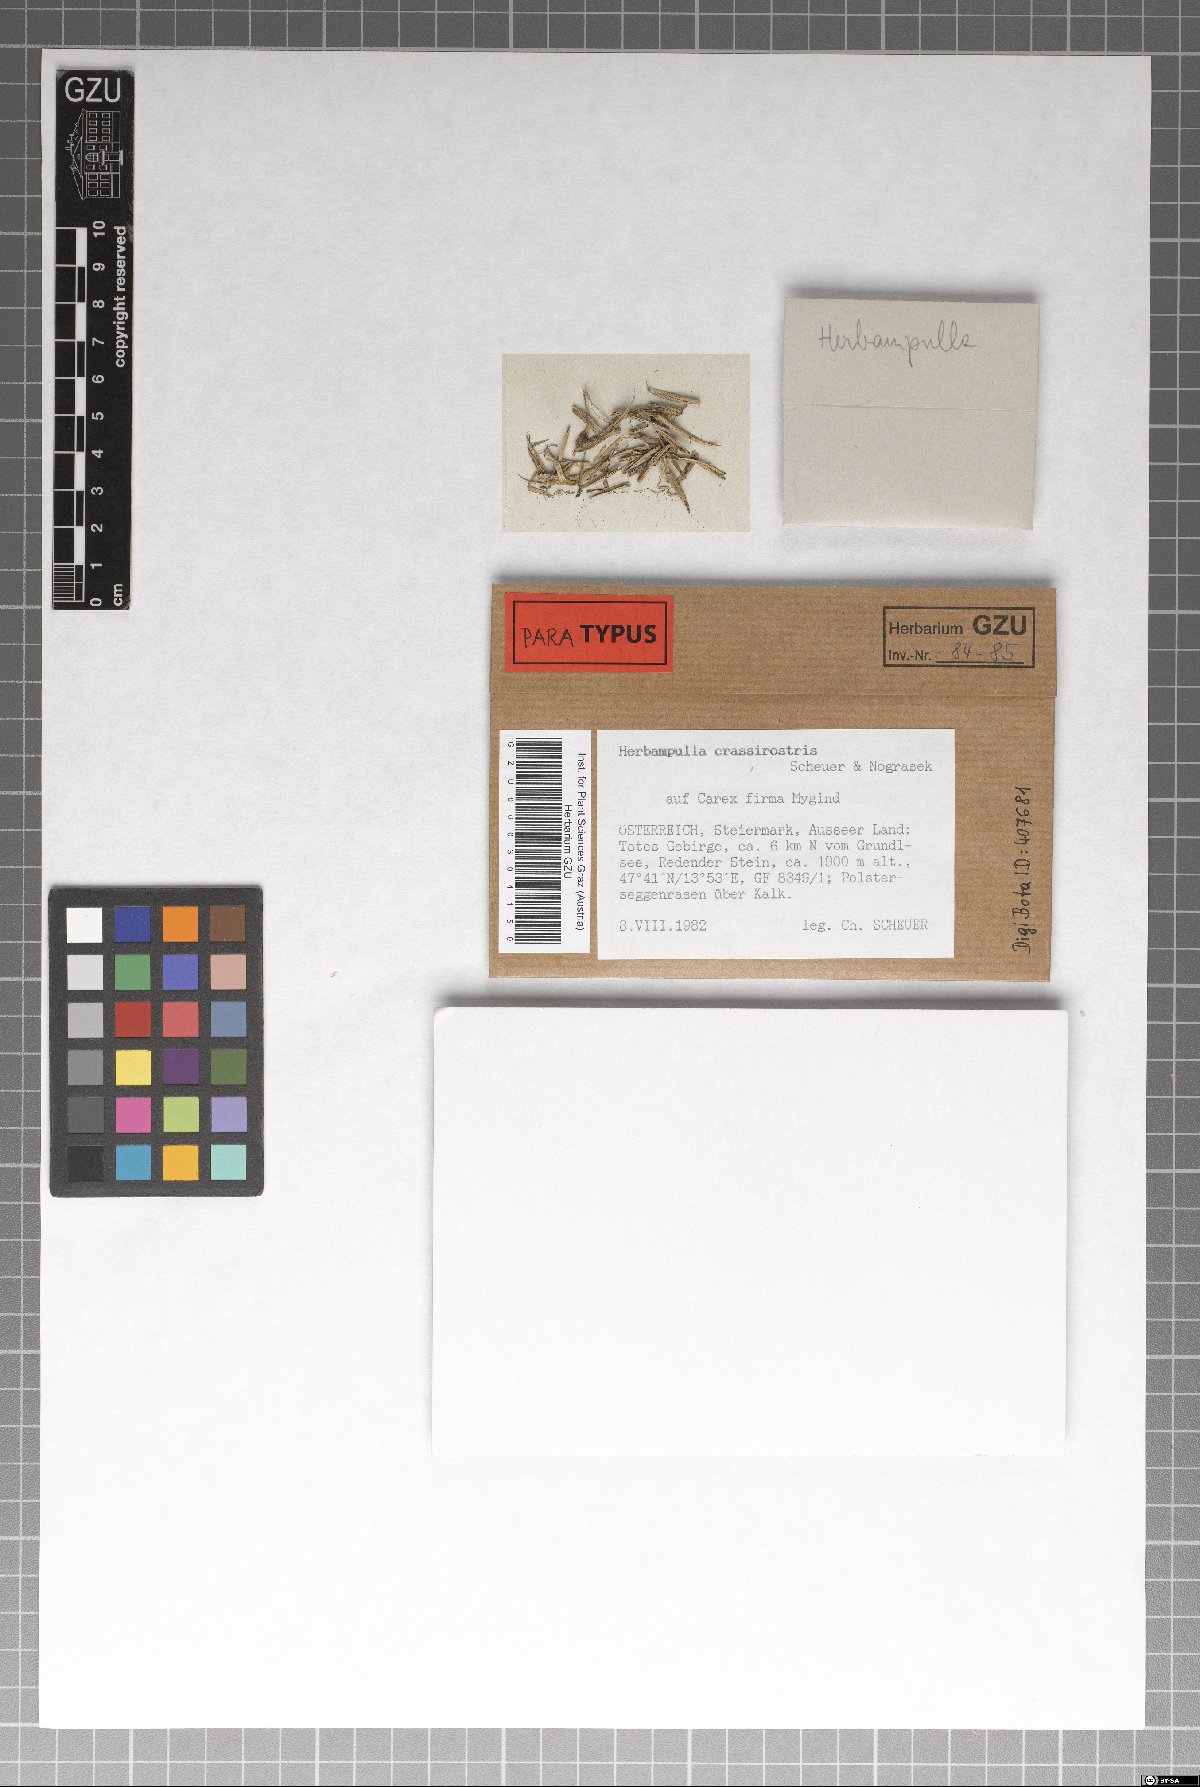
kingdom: Fungi
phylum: Ascomycota
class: Sordariomycetes
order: Magnaporthales
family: Magnaporthaceae
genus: Herbampulla
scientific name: Herbampulla crassirostris
